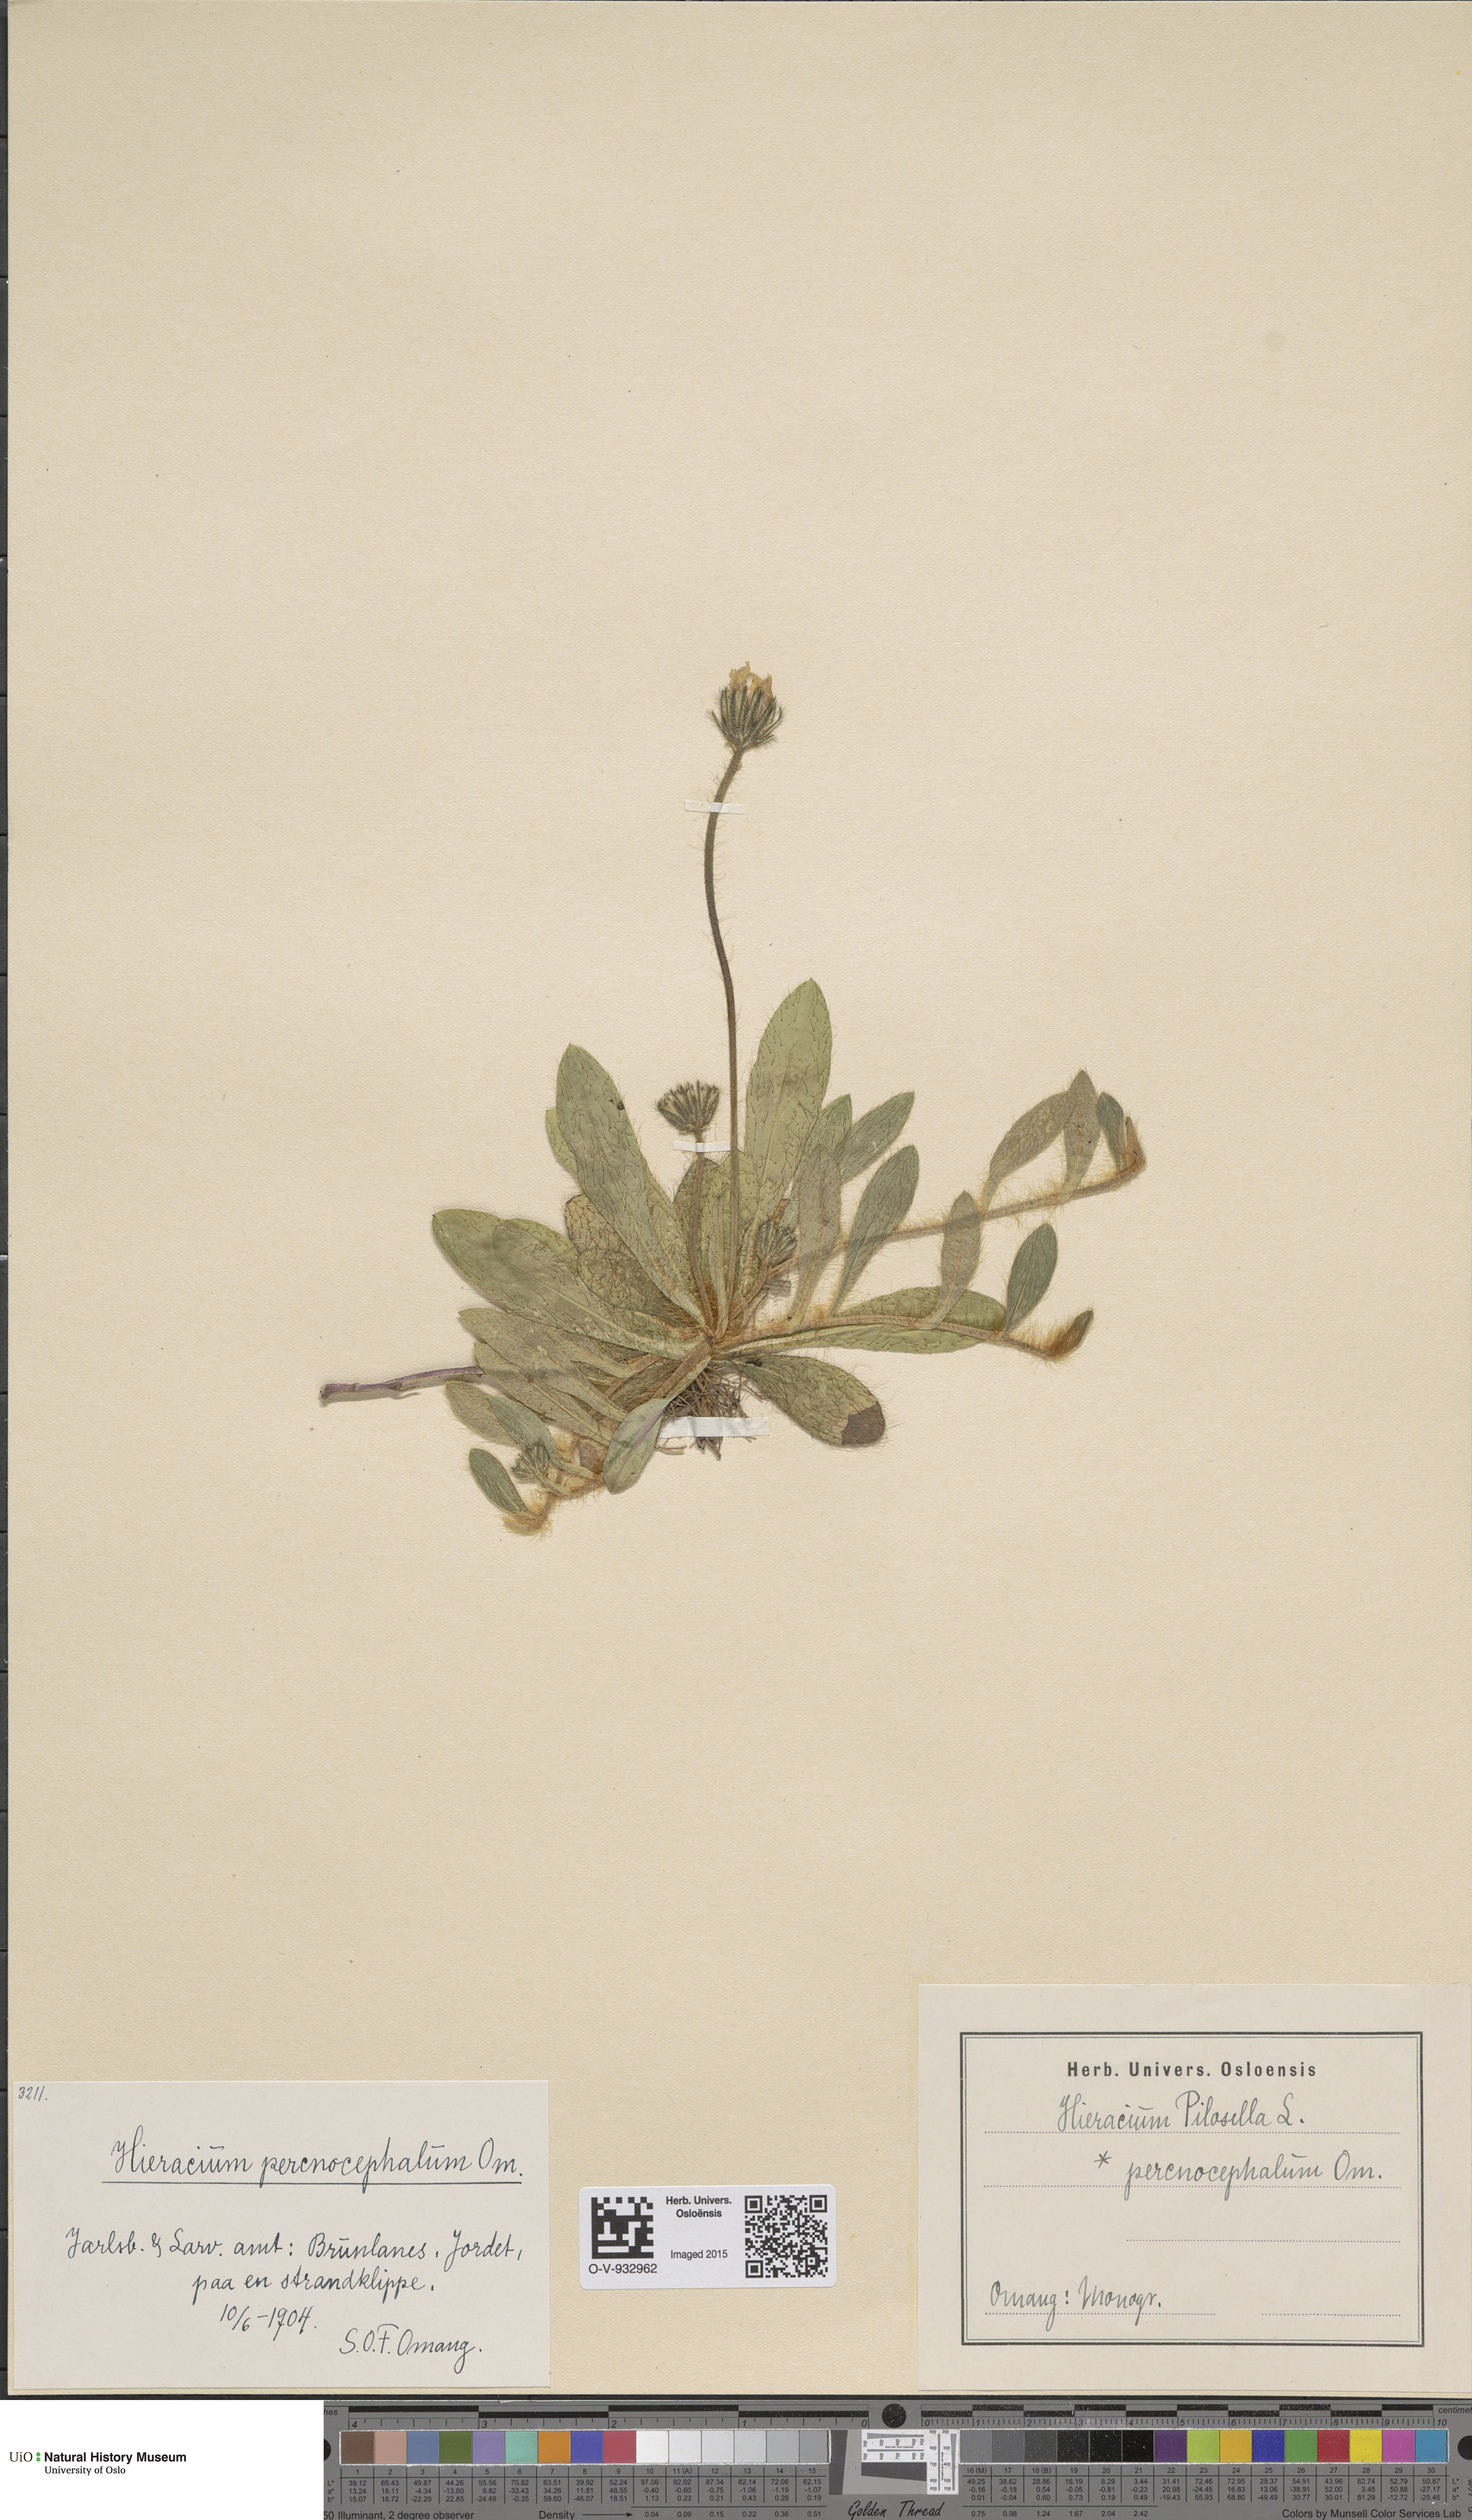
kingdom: Plantae
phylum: Tracheophyta
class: Magnoliopsida
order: Asterales
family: Asteraceae
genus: Pilosella
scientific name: Pilosella officinarum
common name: Mouse-ear hawkweed
